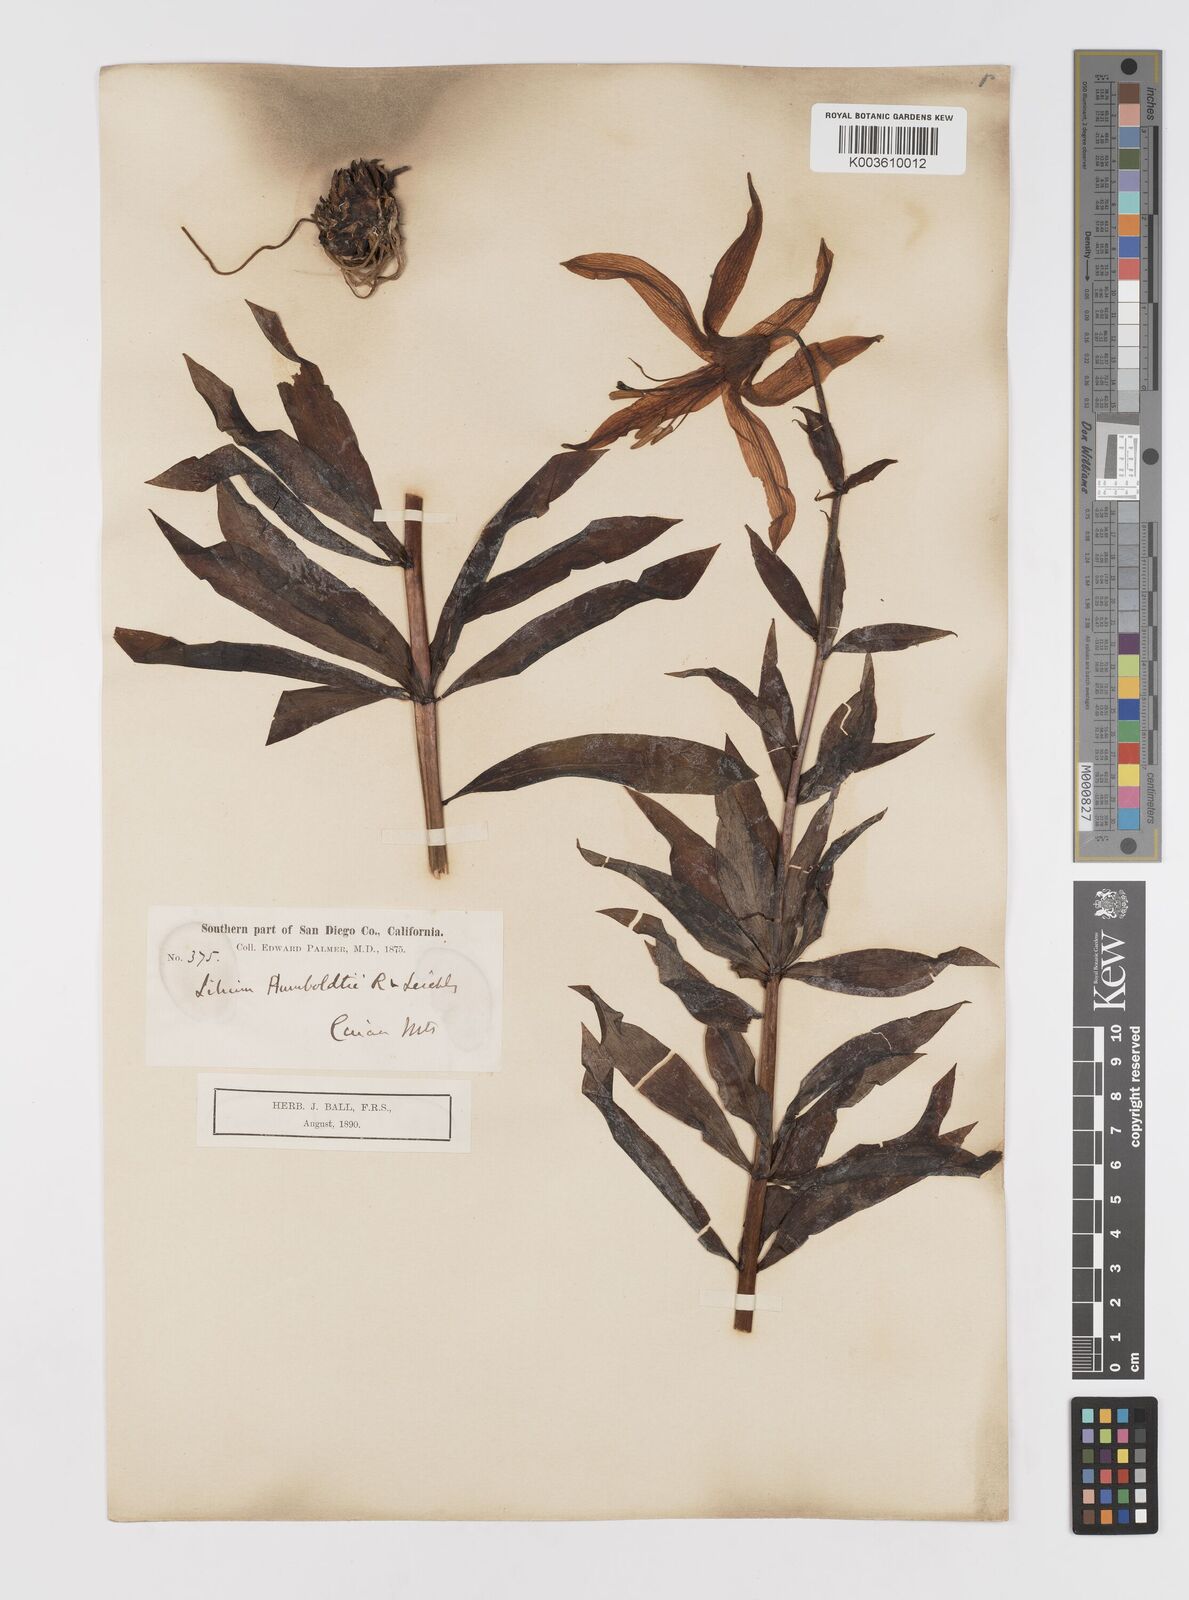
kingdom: Plantae
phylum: Tracheophyta
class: Liliopsida
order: Liliales
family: Liliaceae
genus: Lilium
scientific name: Lilium humboldtii
